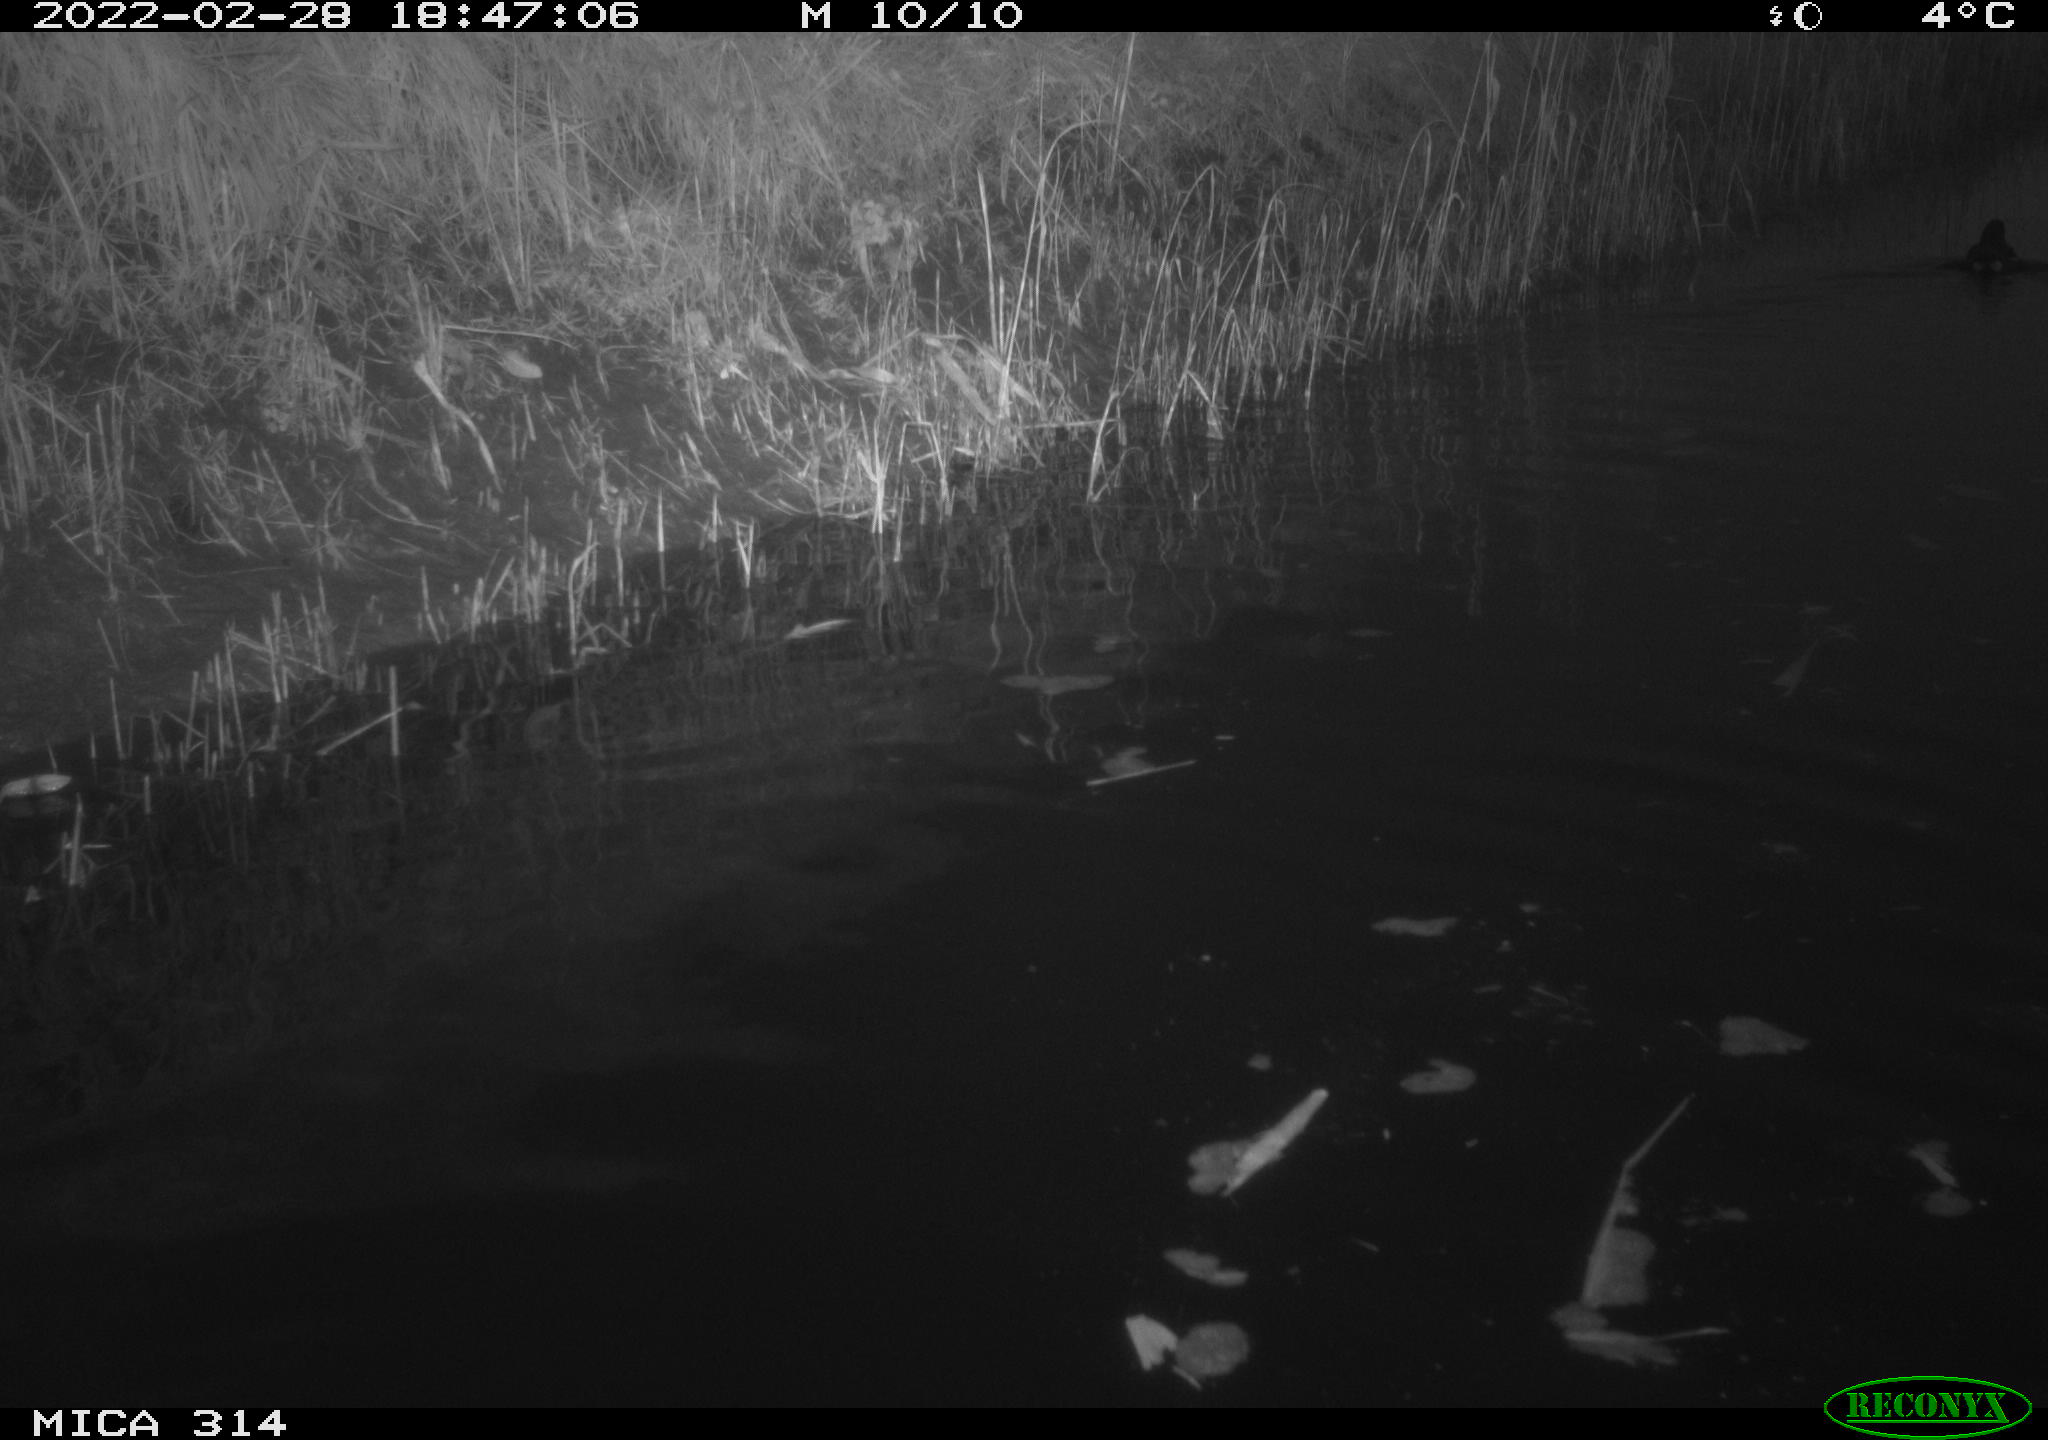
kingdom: Animalia
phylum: Chordata
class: Aves
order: Gruiformes
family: Rallidae
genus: Gallinula
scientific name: Gallinula chloropus
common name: Common moorhen
